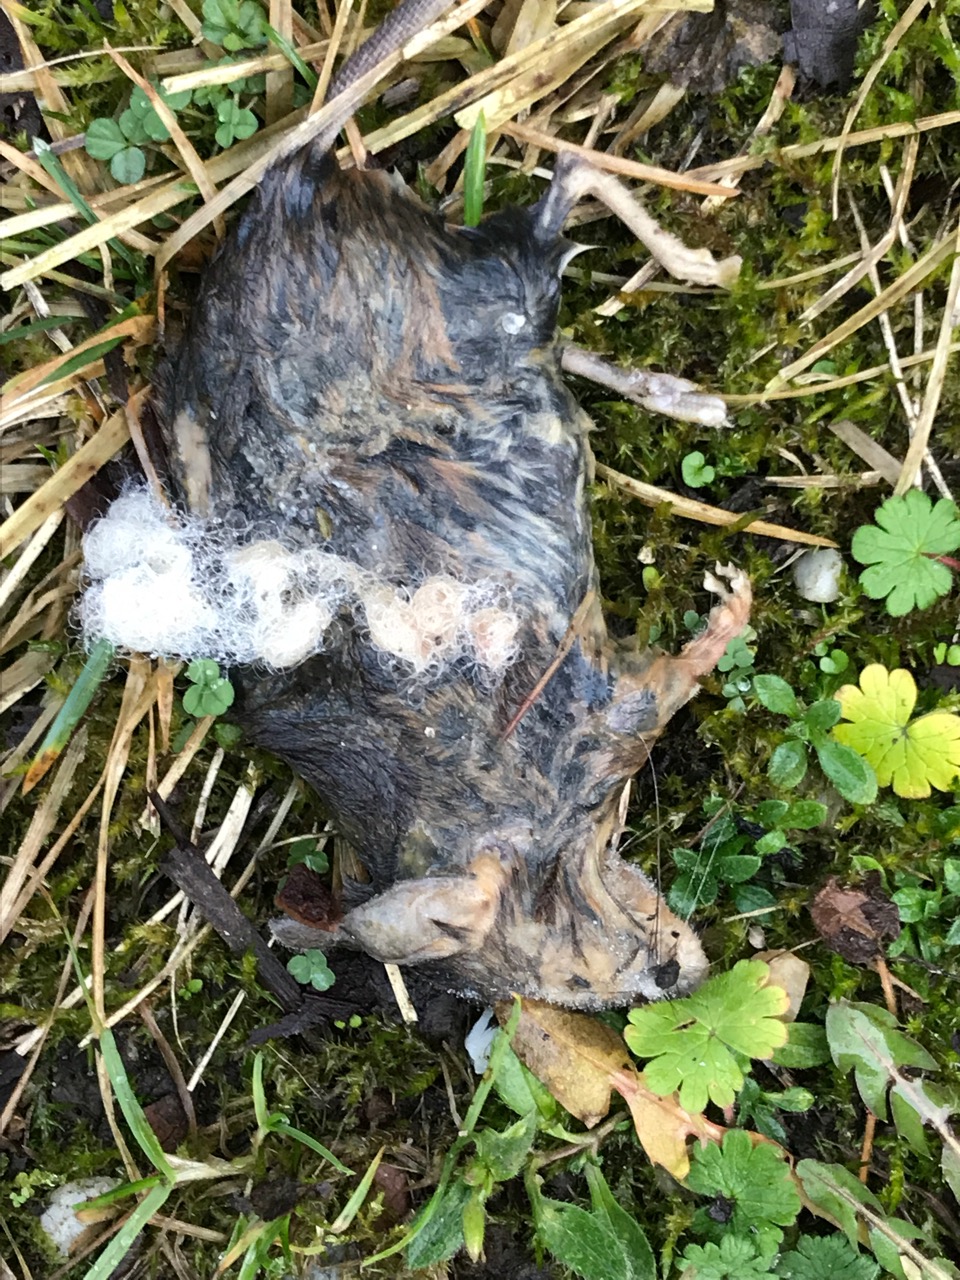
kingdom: Animalia
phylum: Chordata
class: Mammalia
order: Rodentia
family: Muridae
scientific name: Muridae
